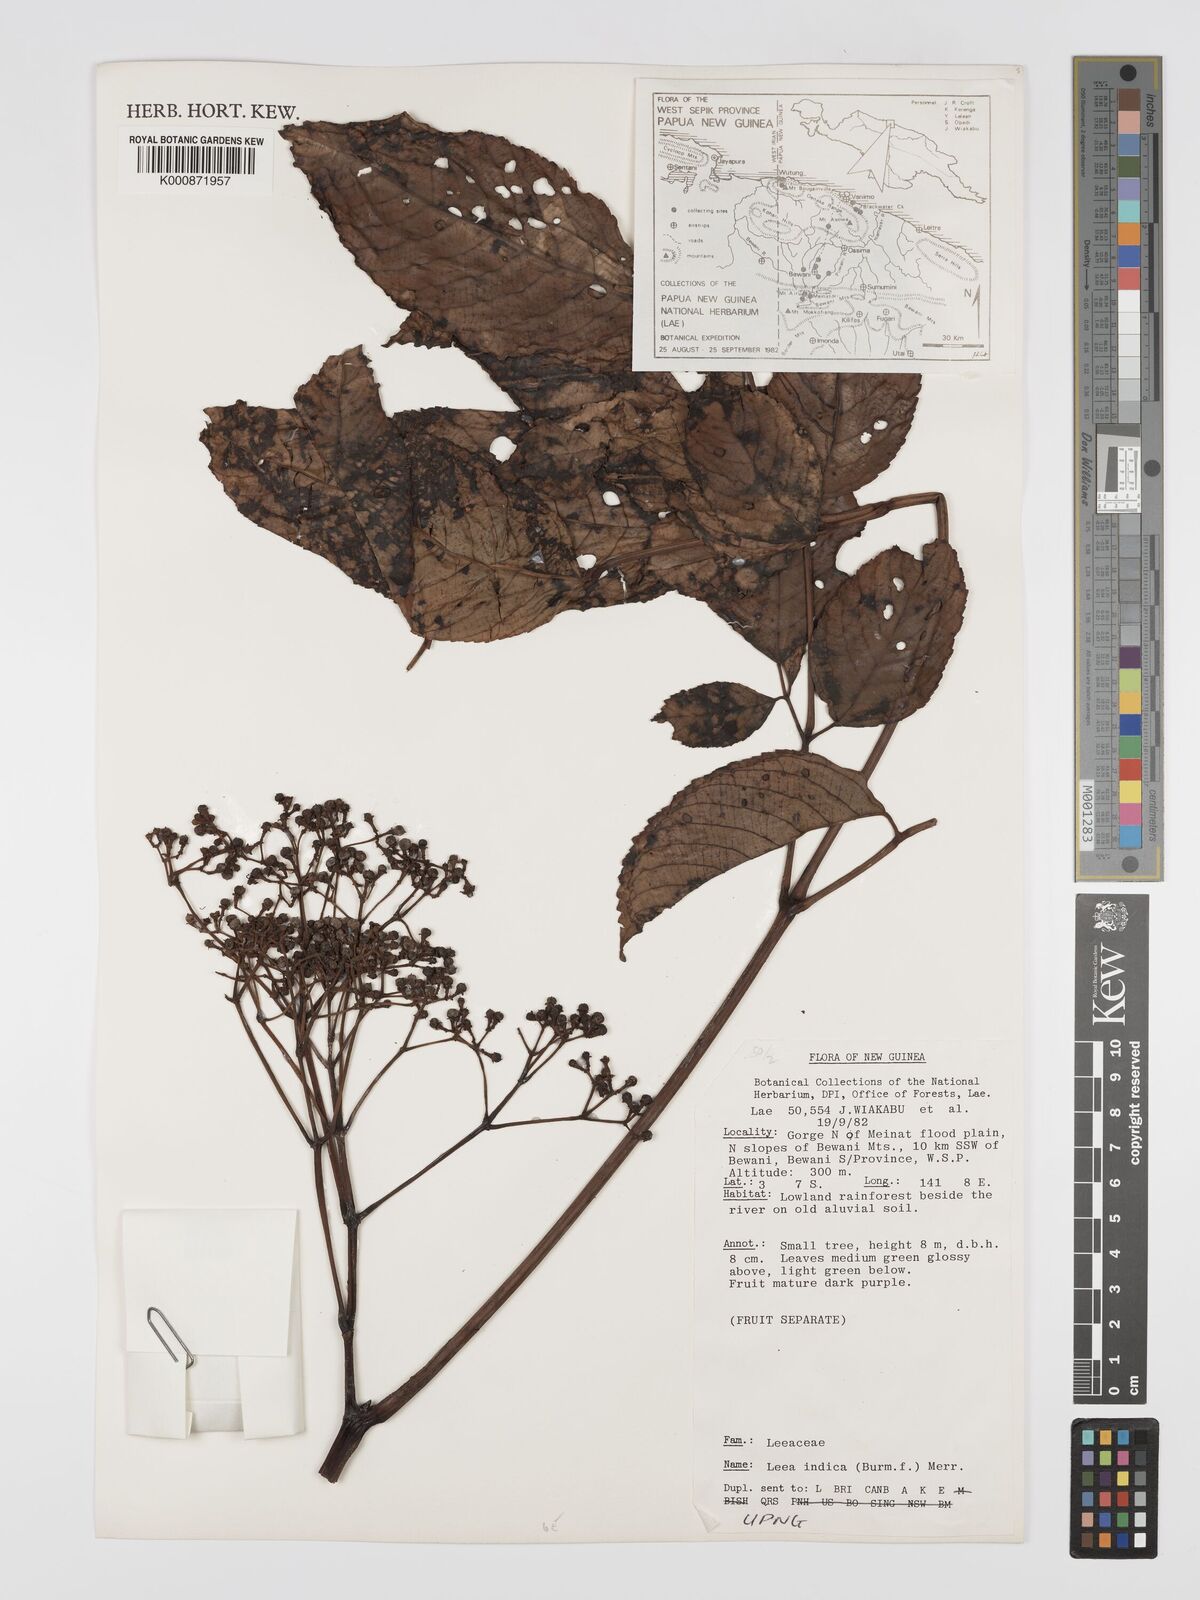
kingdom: Plantae
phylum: Tracheophyta
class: Magnoliopsida
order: Vitales
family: Vitaceae
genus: Leea
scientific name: Leea indica
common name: Bandicoot-berry
